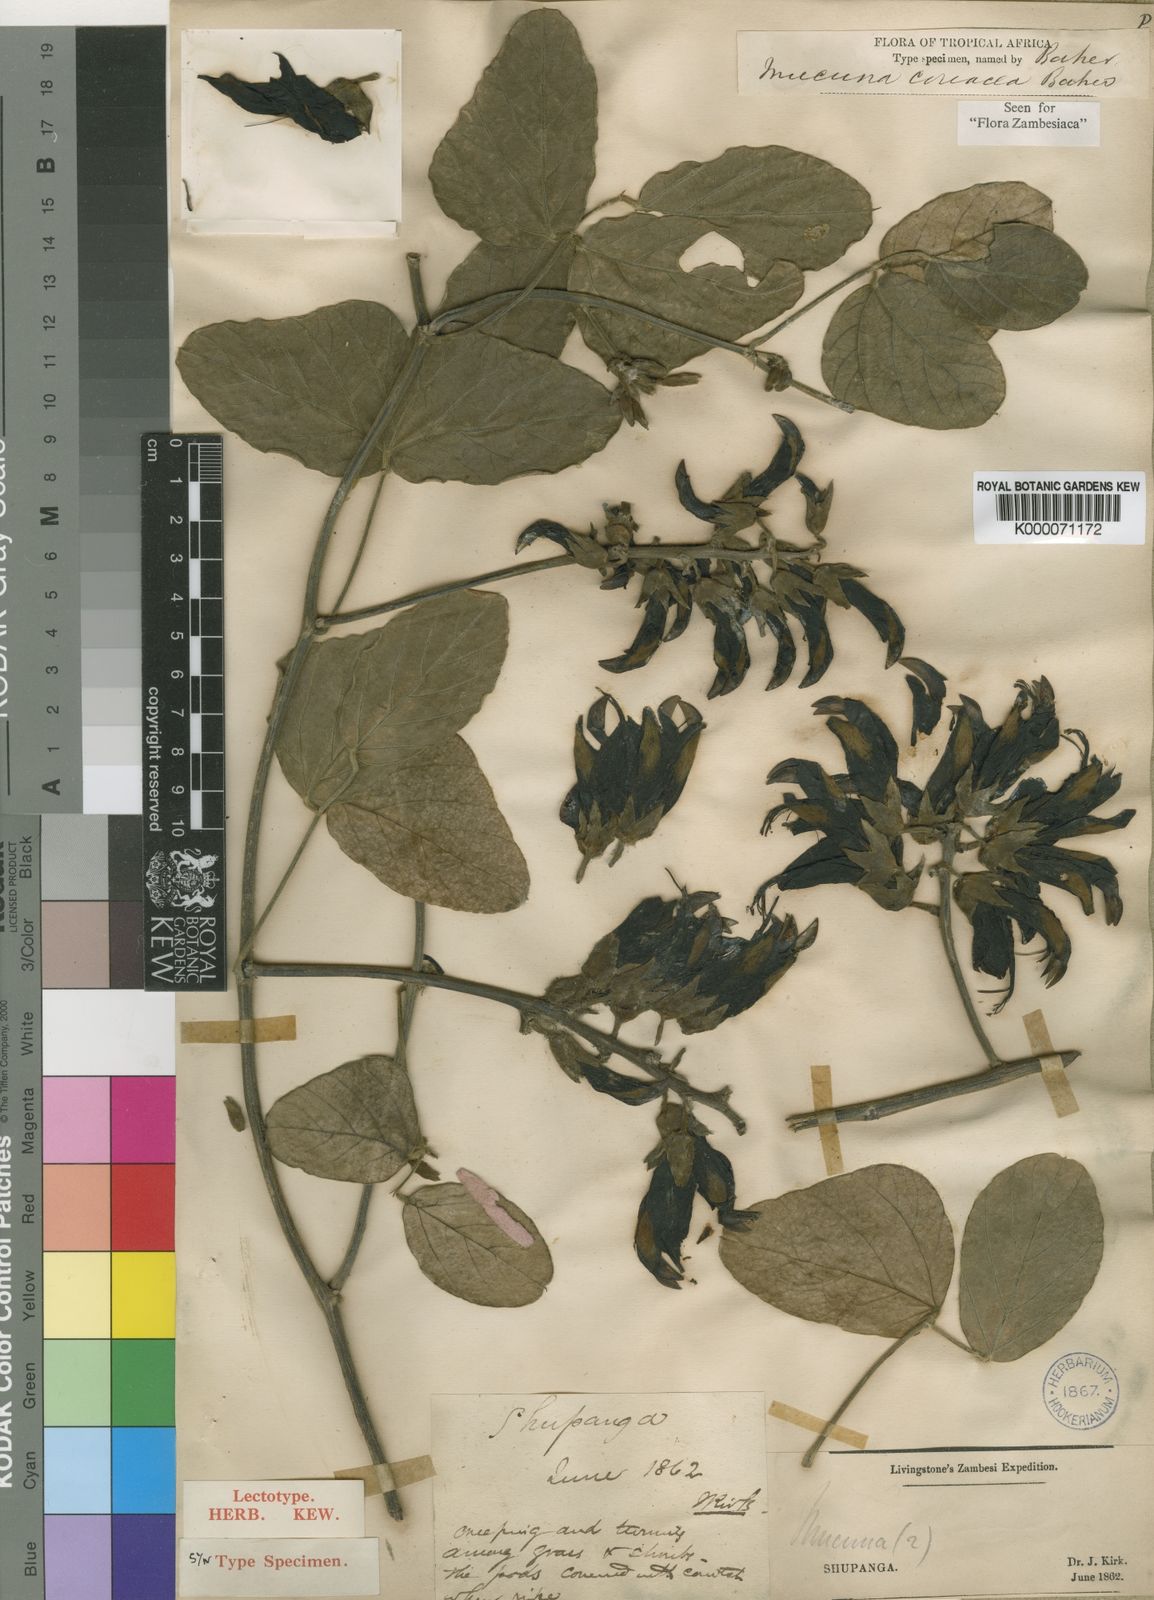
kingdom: Plantae
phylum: Tracheophyta
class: Magnoliopsida
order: Fabales
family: Fabaceae
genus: Mucuna
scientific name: Mucuna coriacea
